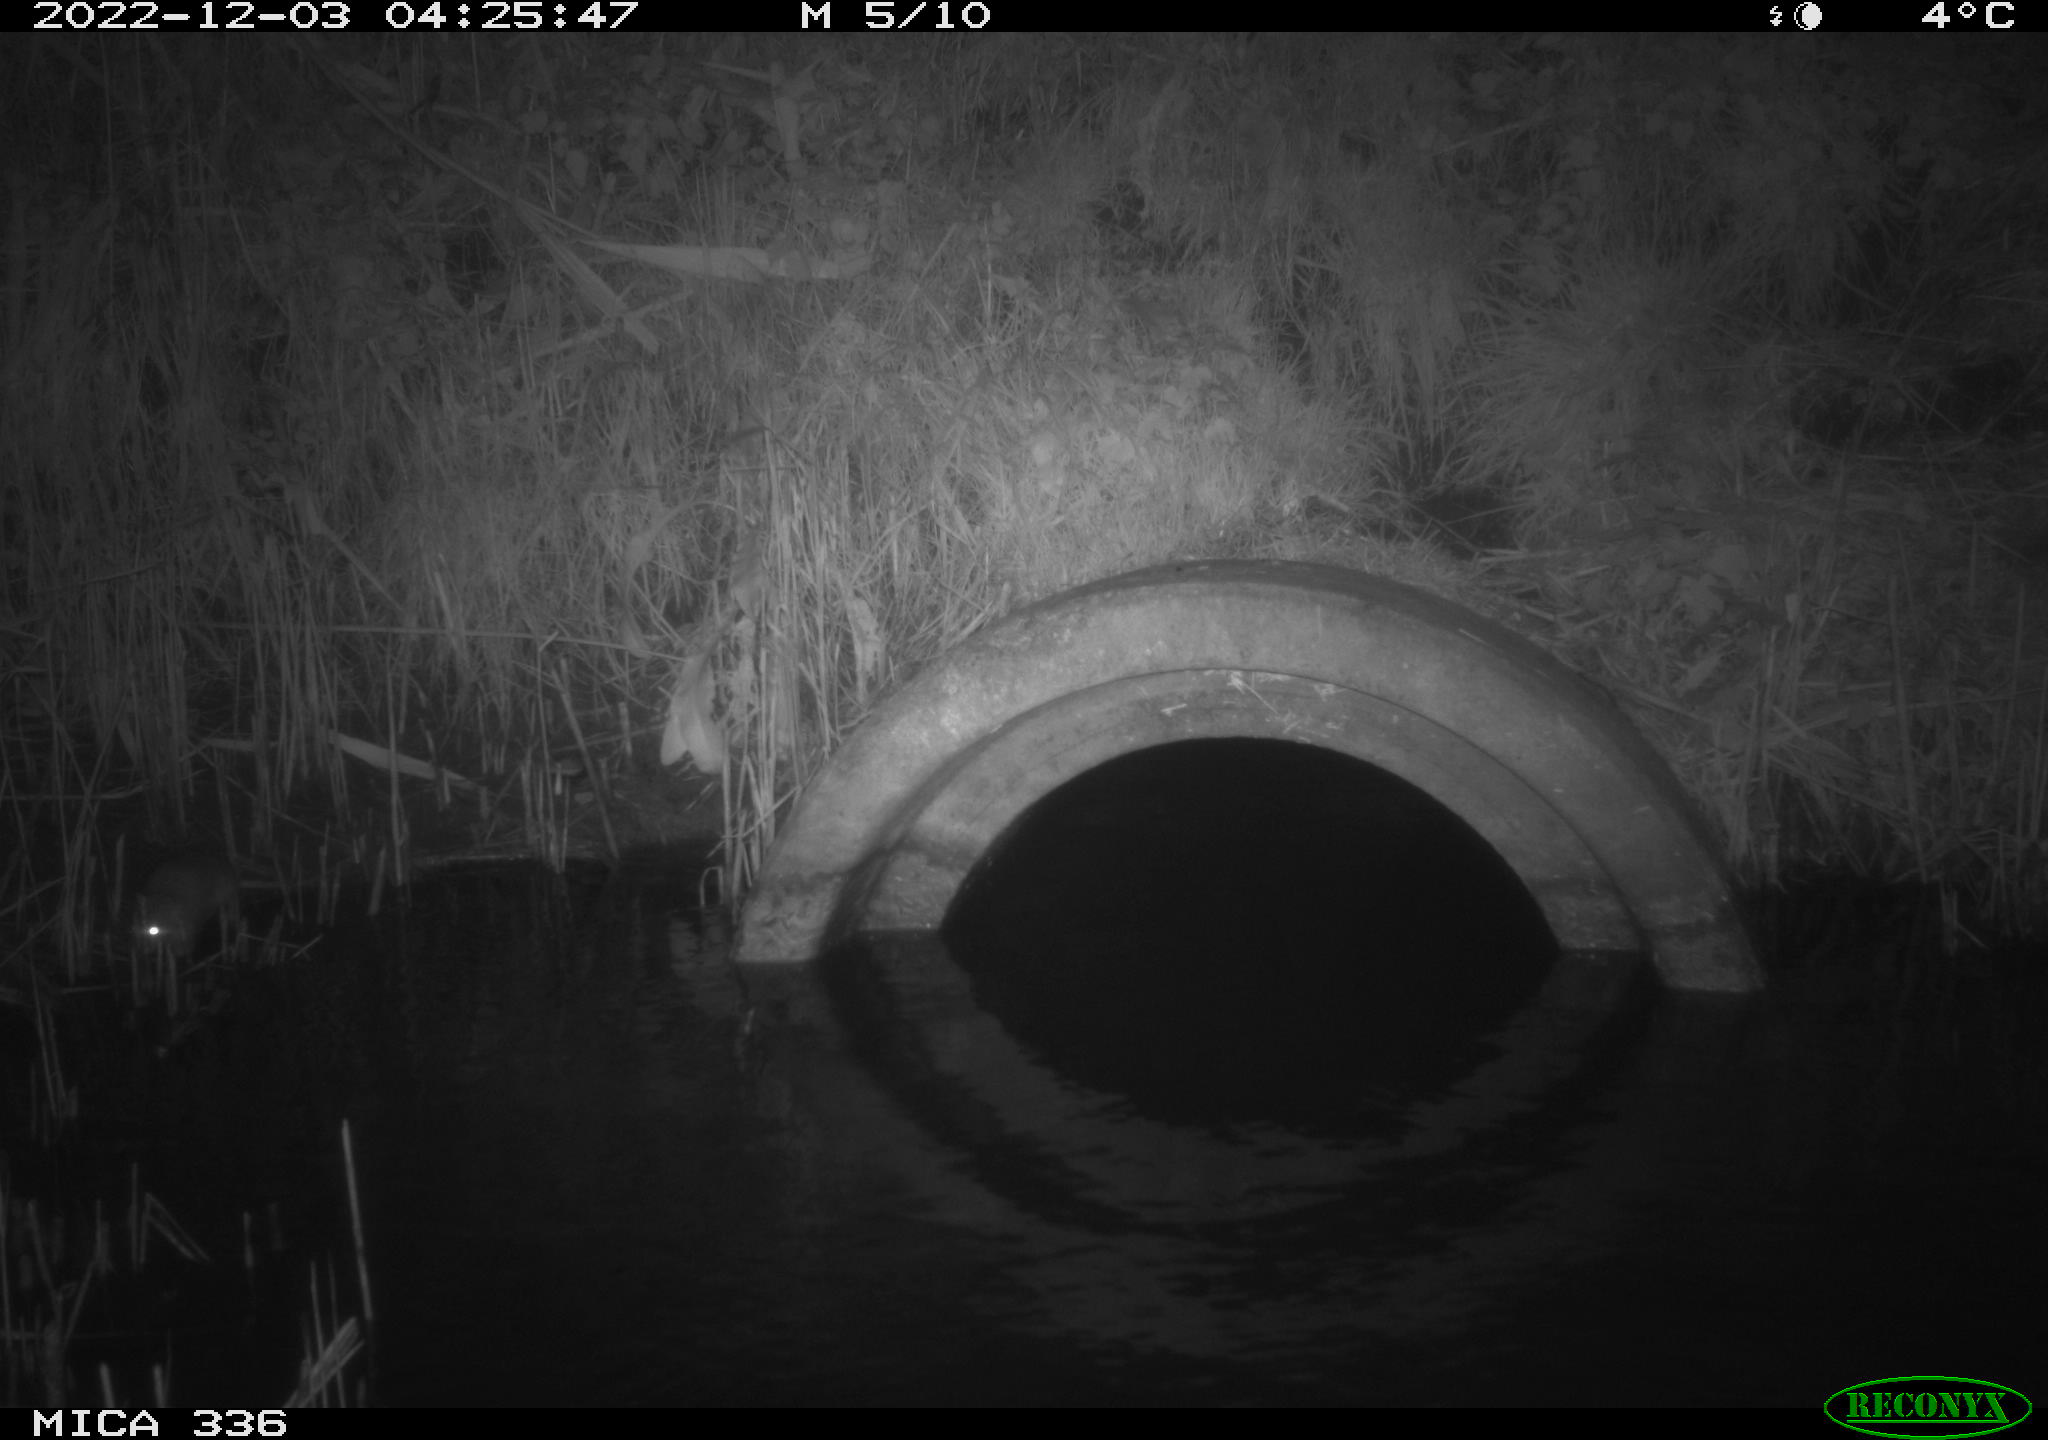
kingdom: Animalia
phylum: Chordata
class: Mammalia
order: Rodentia
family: Muridae
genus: Rattus
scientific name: Rattus norvegicus
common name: Brown rat
